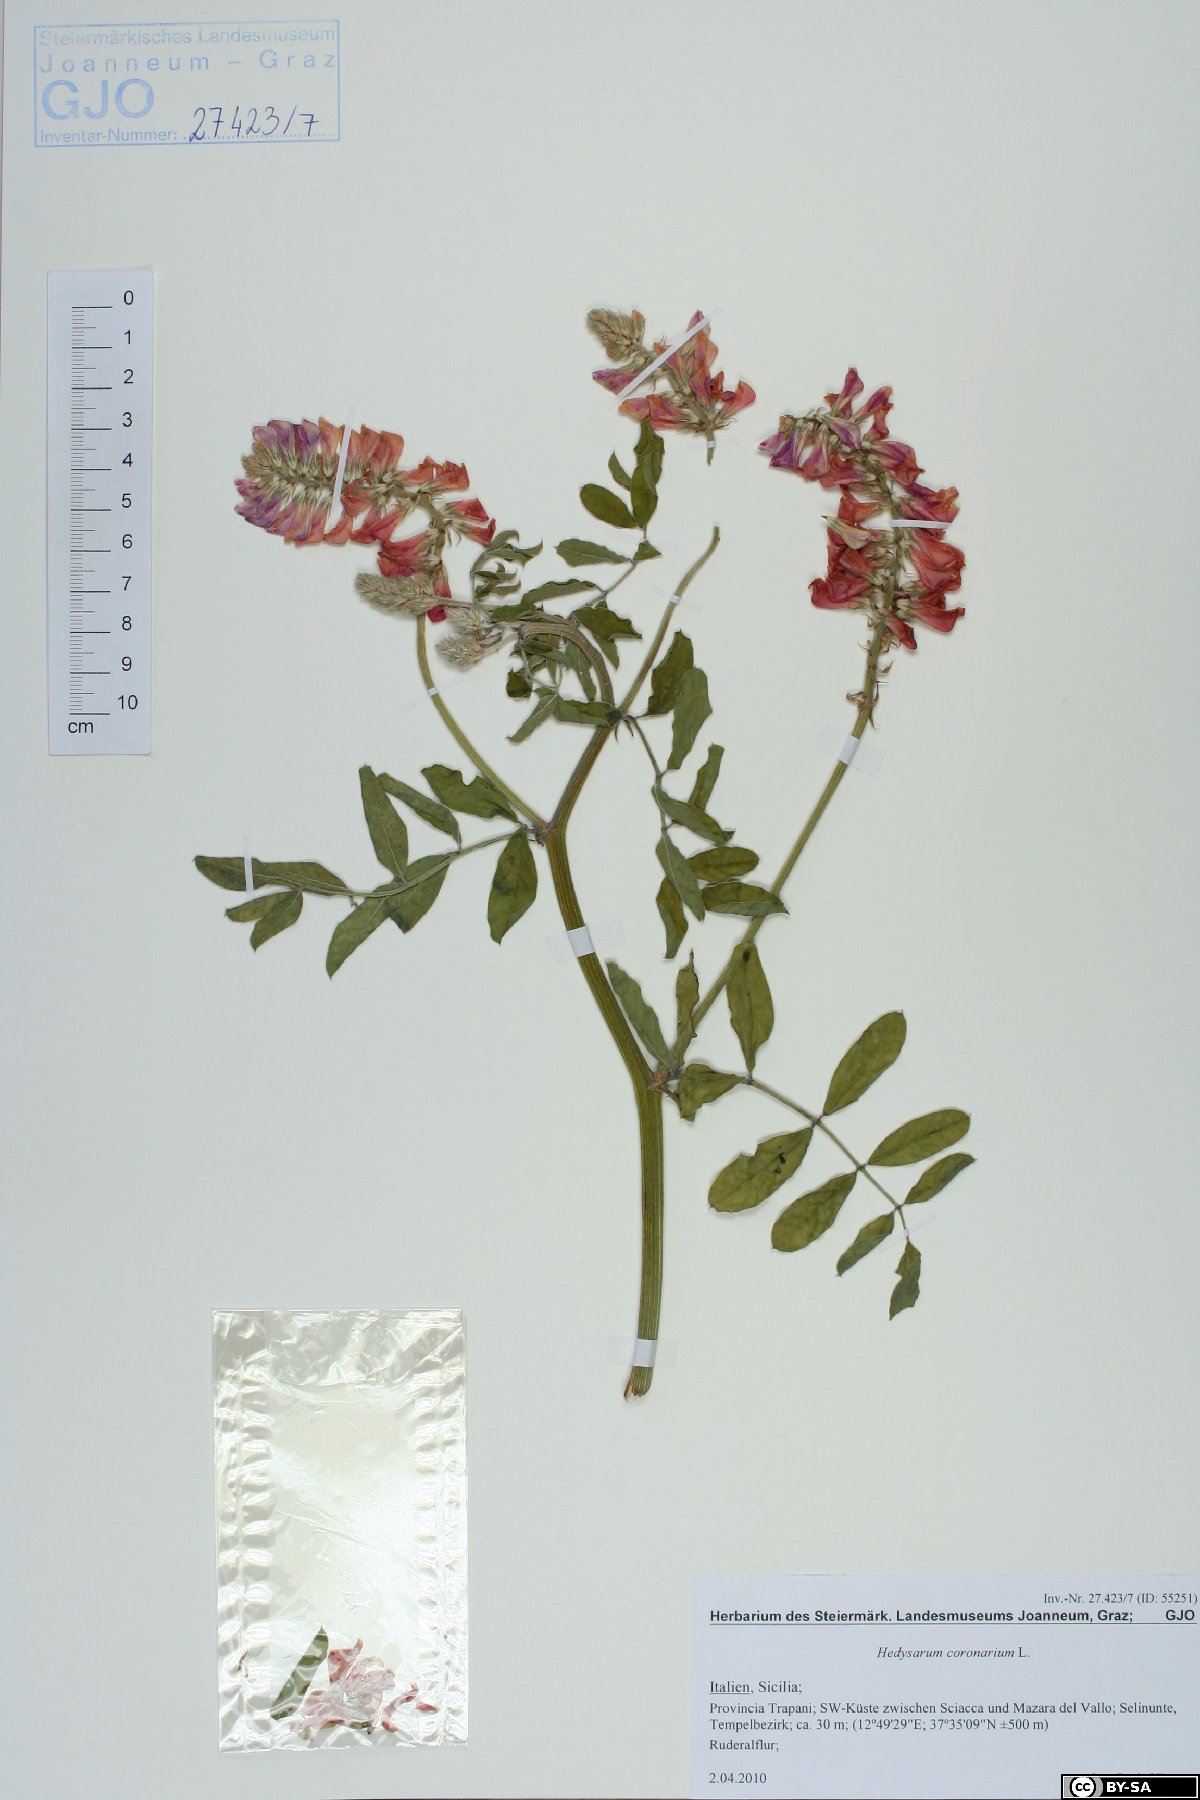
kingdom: Plantae
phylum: Tracheophyta
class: Magnoliopsida
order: Fabales
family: Fabaceae
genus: Sulla
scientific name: Sulla coronaria
